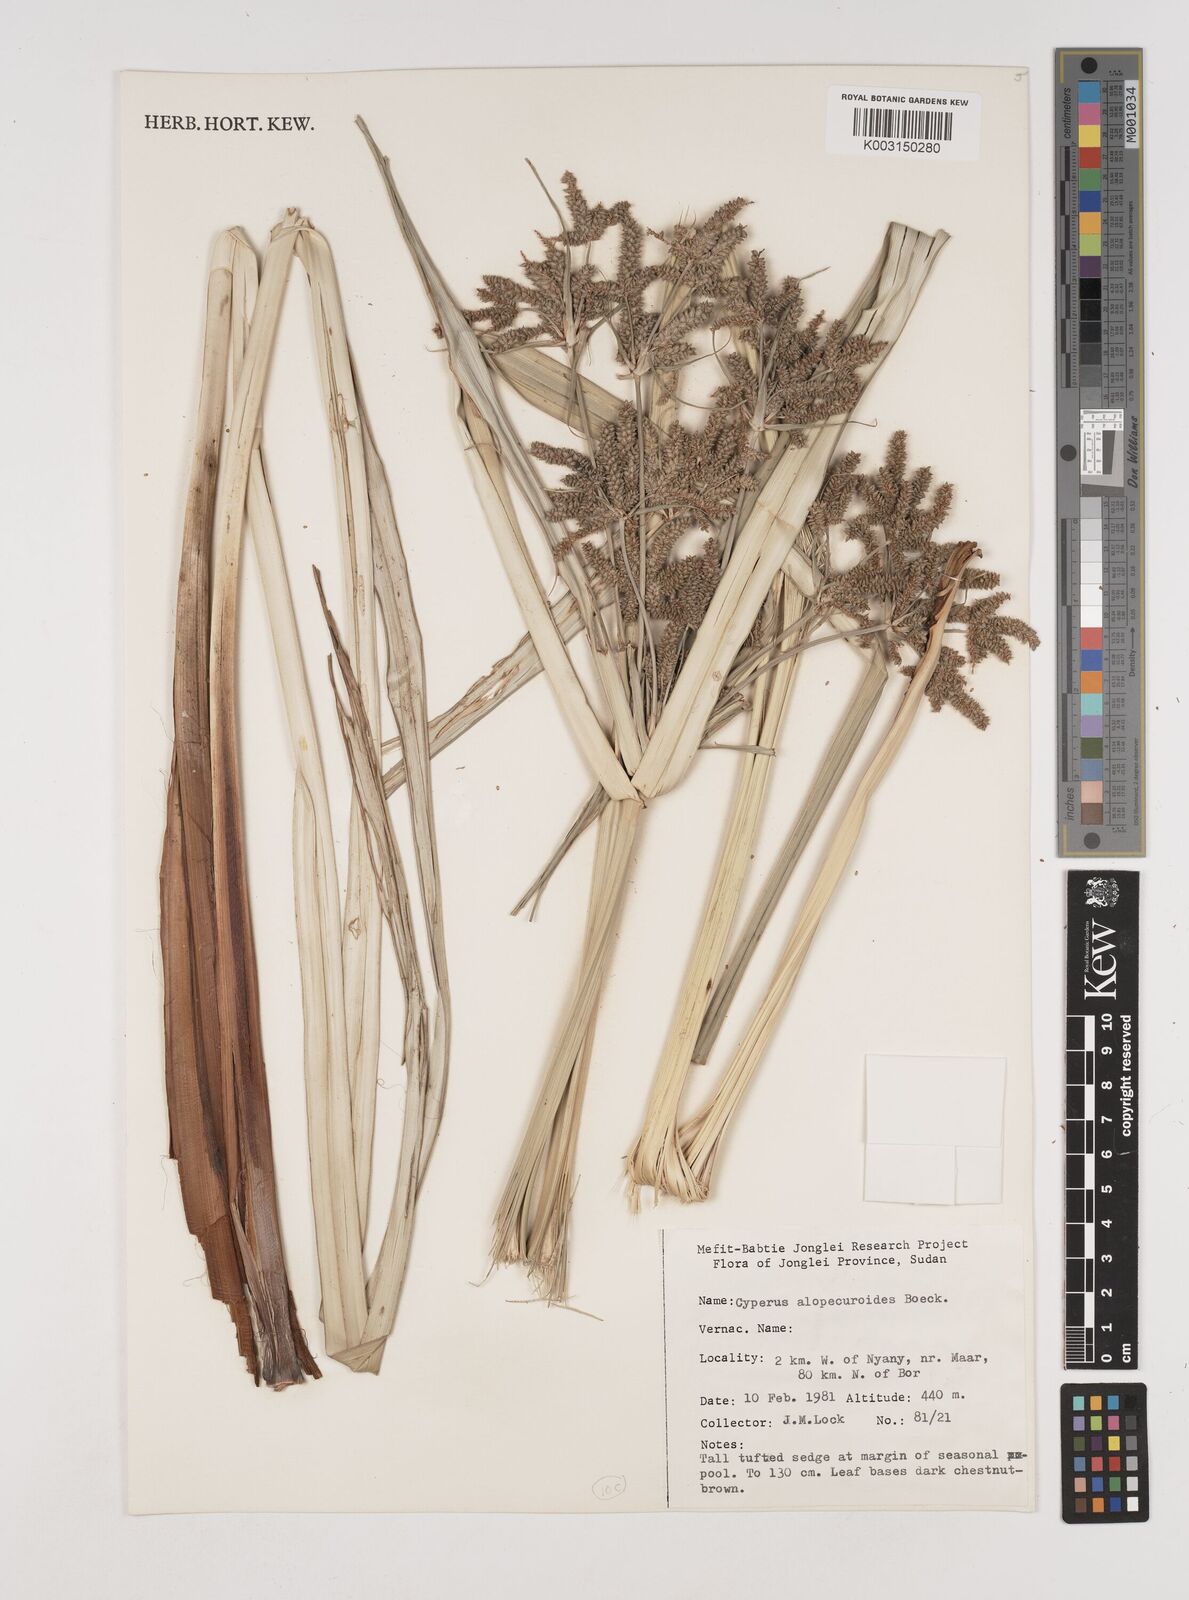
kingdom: Plantae
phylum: Tracheophyta
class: Liliopsida
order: Poales
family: Cyperaceae
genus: Cyperus
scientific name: Cyperus alopecuroides
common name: Foxtail flatsedge
